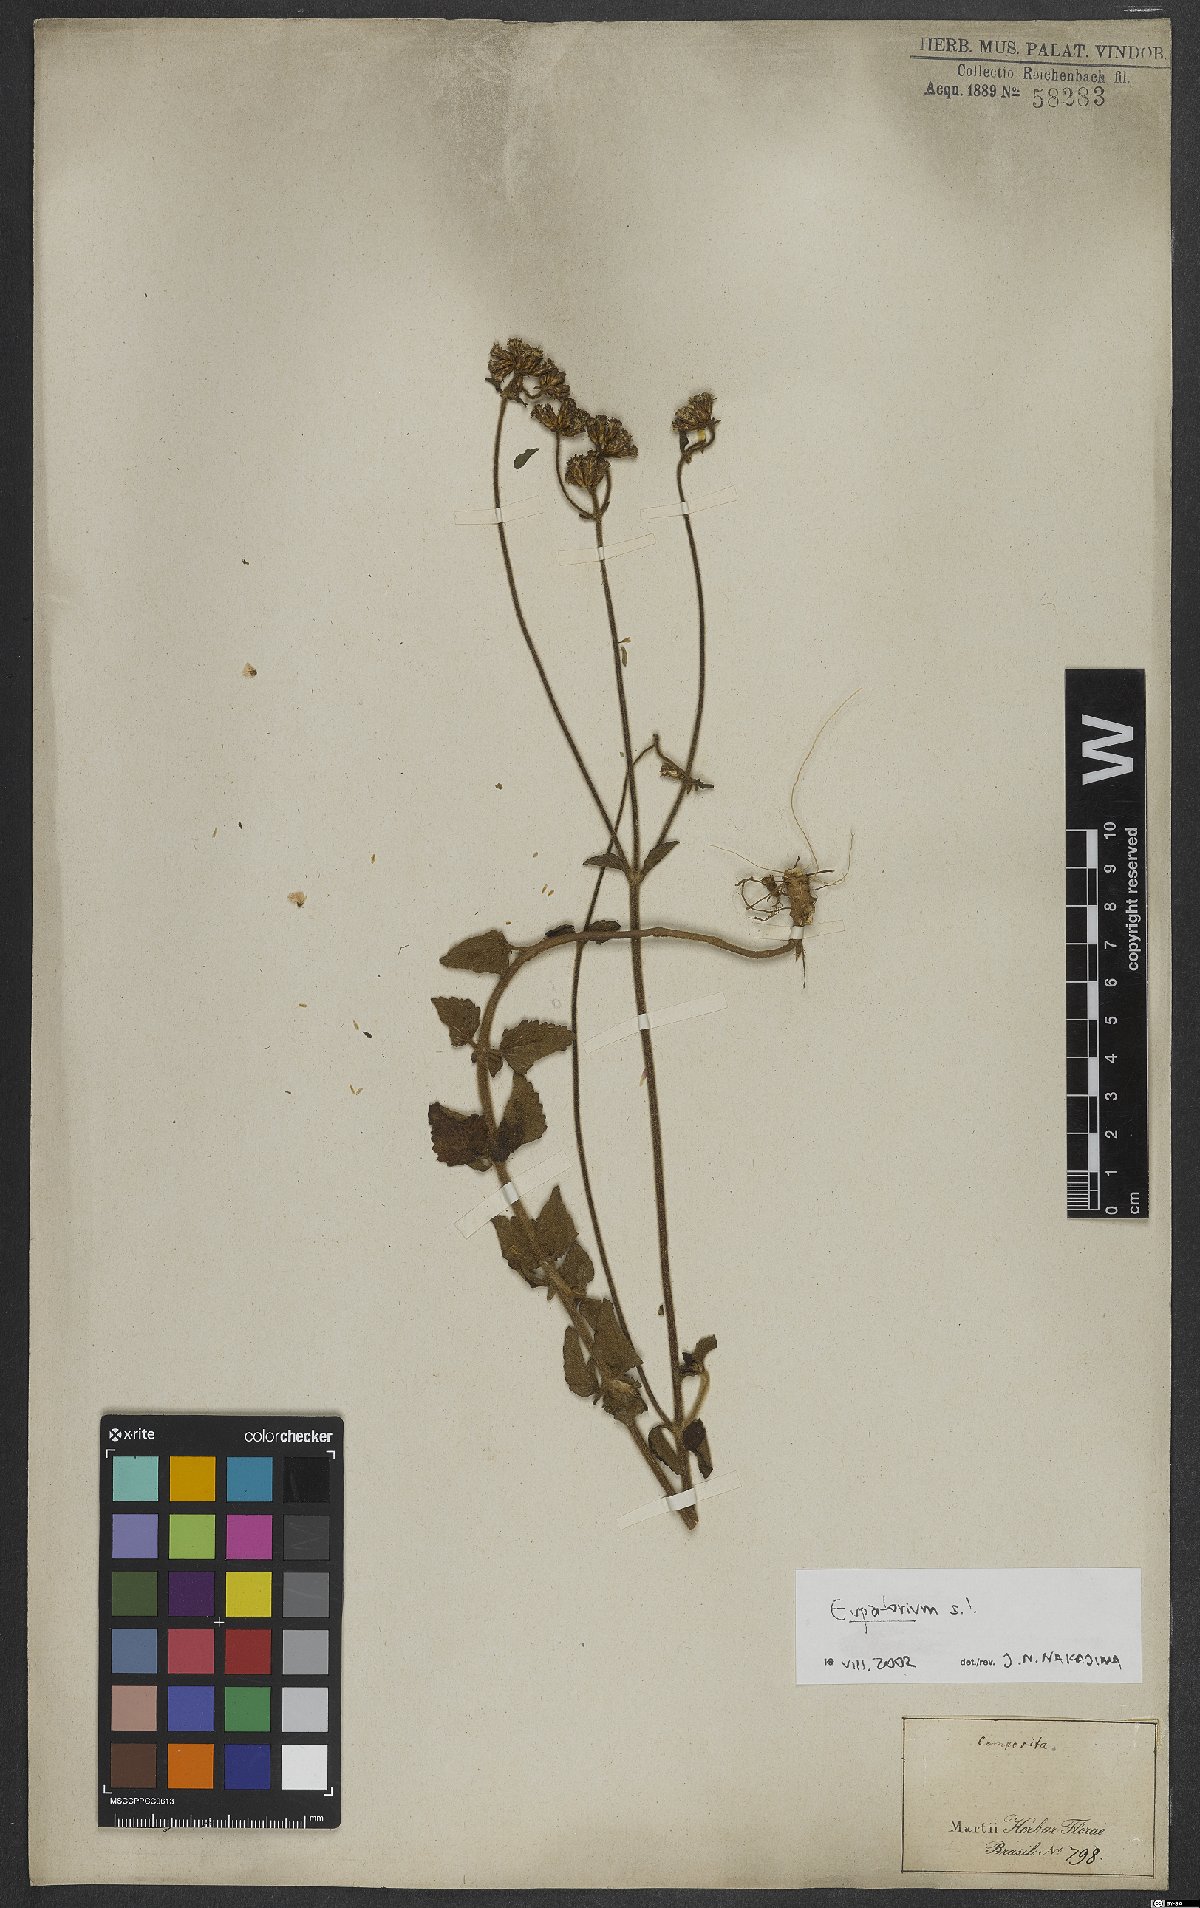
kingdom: Plantae
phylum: Tracheophyta
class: Magnoliopsida
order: Asterales
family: Asteraceae
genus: Eupatorium
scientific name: Eupatorium
